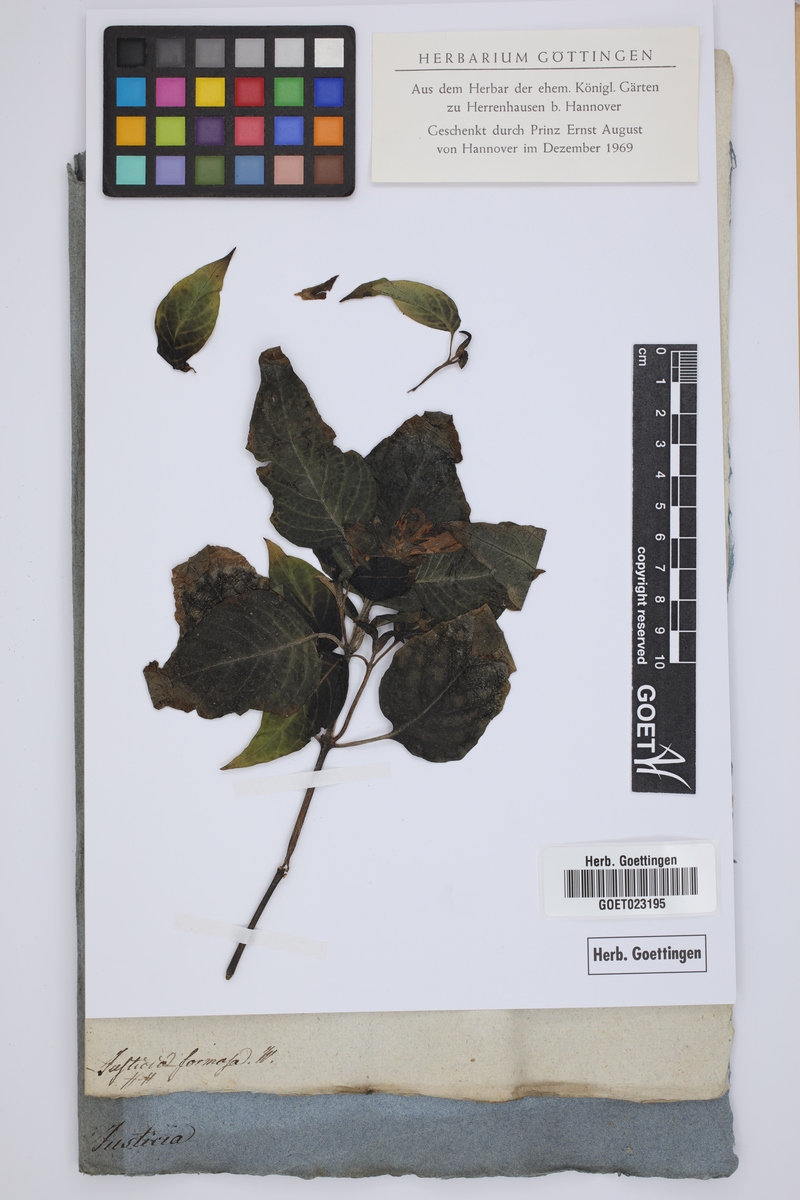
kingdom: Plantae
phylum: Tracheophyta
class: Magnoliopsida
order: Lamiales
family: Acanthaceae
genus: Justicia
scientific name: Justicia nemorosa
